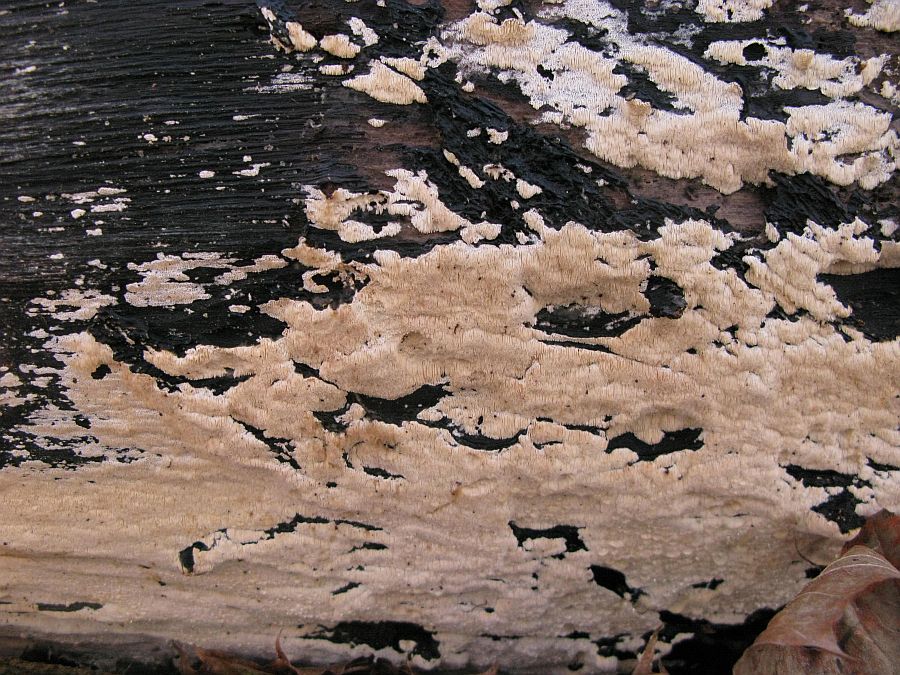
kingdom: Fungi
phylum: Basidiomycota
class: Agaricomycetes
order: Hymenochaetales
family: Oxyporaceae
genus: Oxyporus
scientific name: Oxyporus corticola
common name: storporet trylleporesvamp
